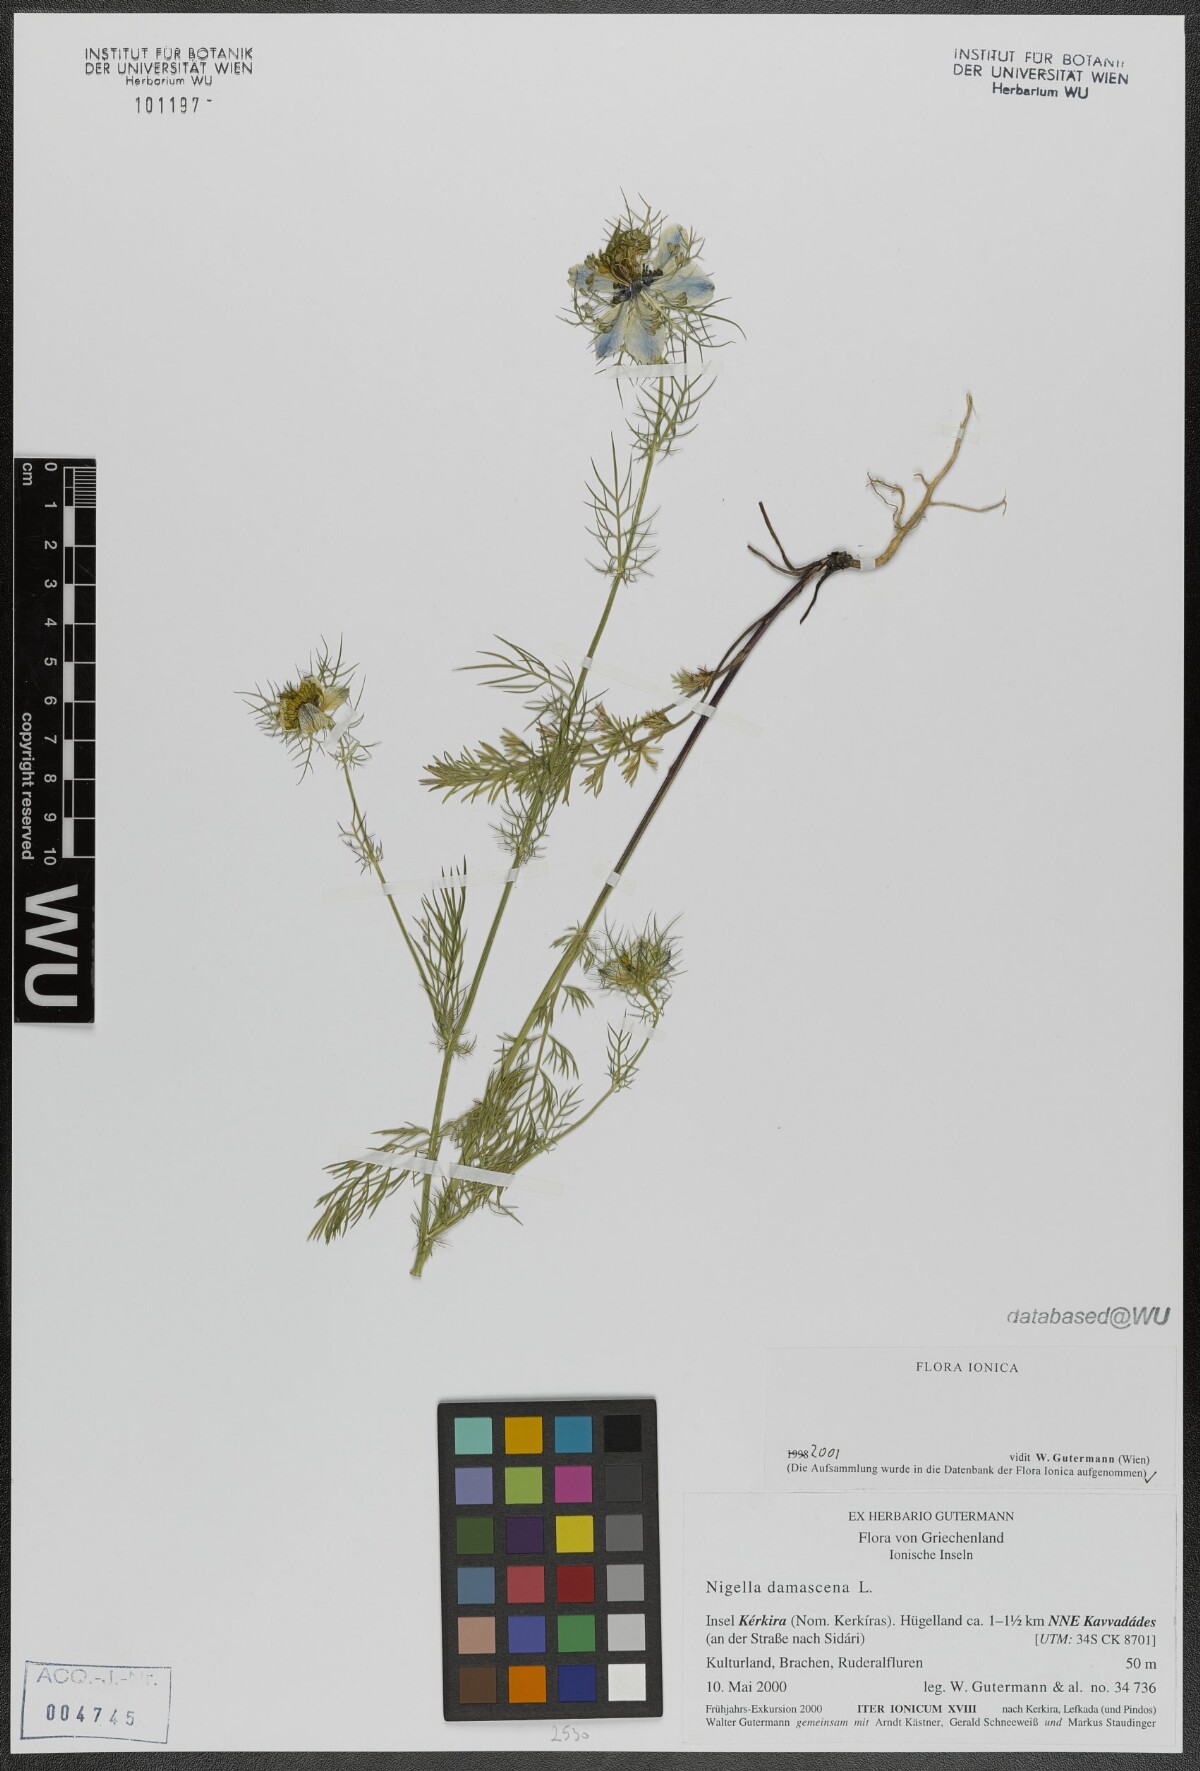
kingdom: Plantae
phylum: Tracheophyta
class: Magnoliopsida
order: Ranunculales
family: Ranunculaceae
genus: Nigella
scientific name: Nigella damascena
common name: Love-in-a-mist
